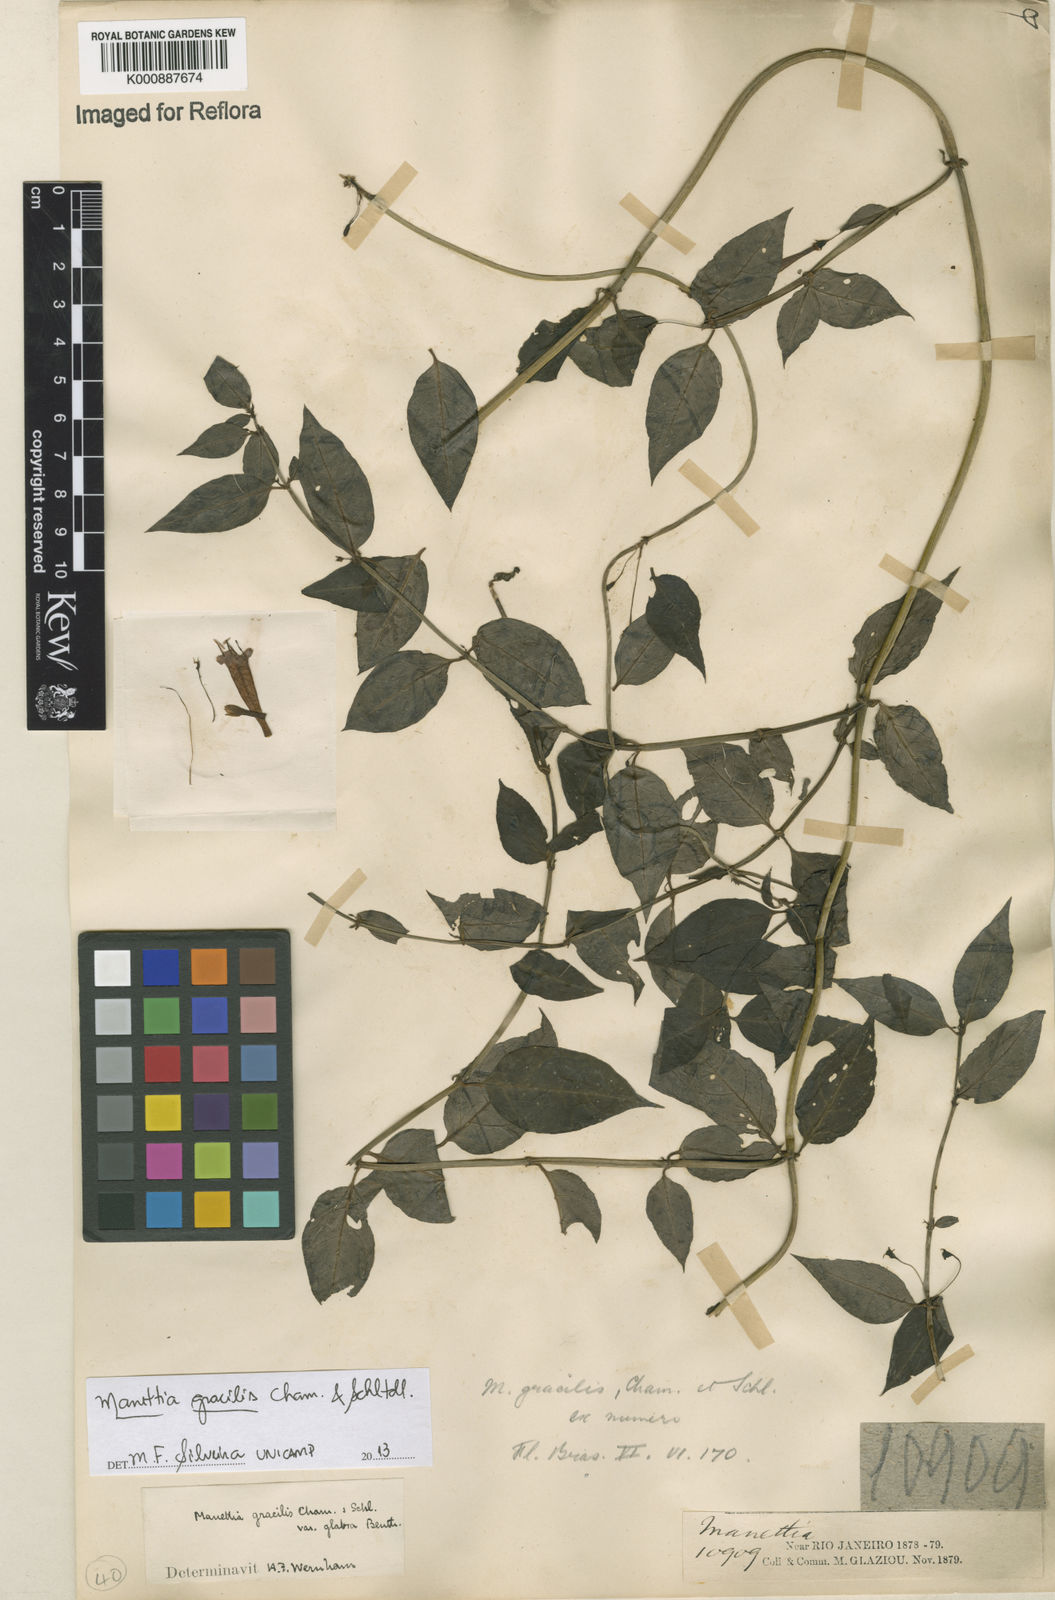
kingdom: Plantae
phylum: Tracheophyta
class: Magnoliopsida
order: Gentianales
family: Rubiaceae
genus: Manettia
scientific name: Manettia gracilis
